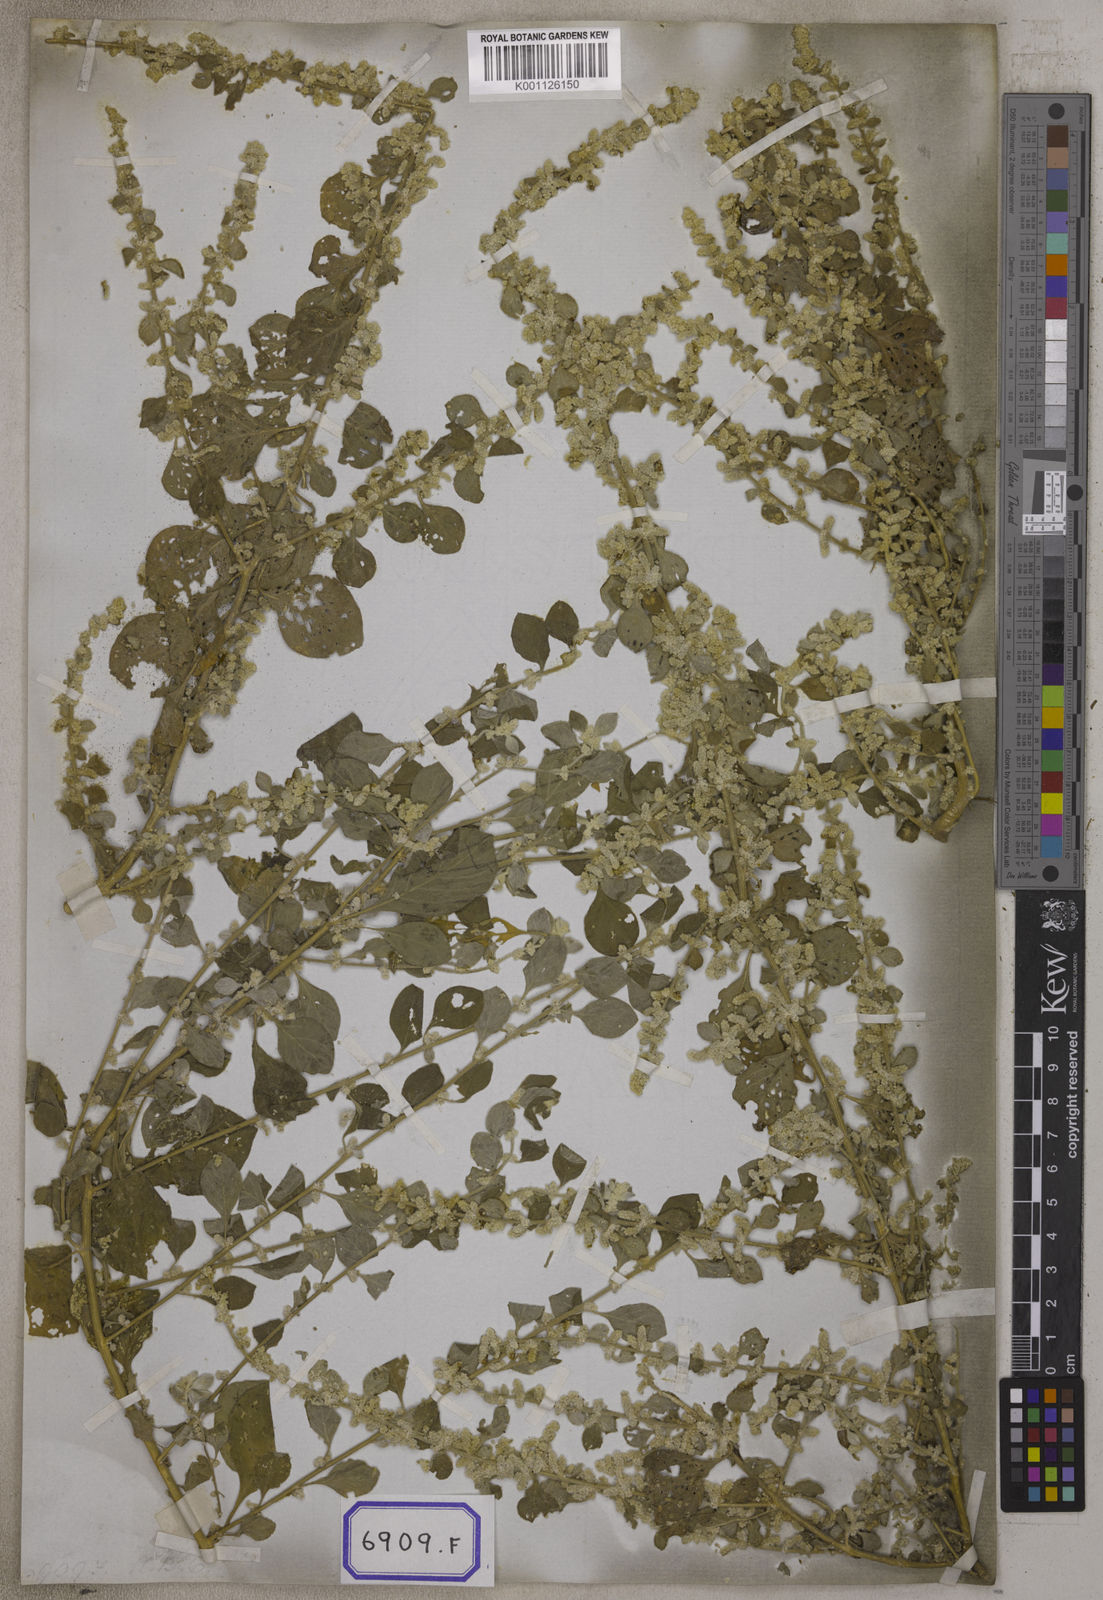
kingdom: Plantae
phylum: Tracheophyta
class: Magnoliopsida
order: Caryophyllales
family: Amaranthaceae
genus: Aerva
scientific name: Aerva
